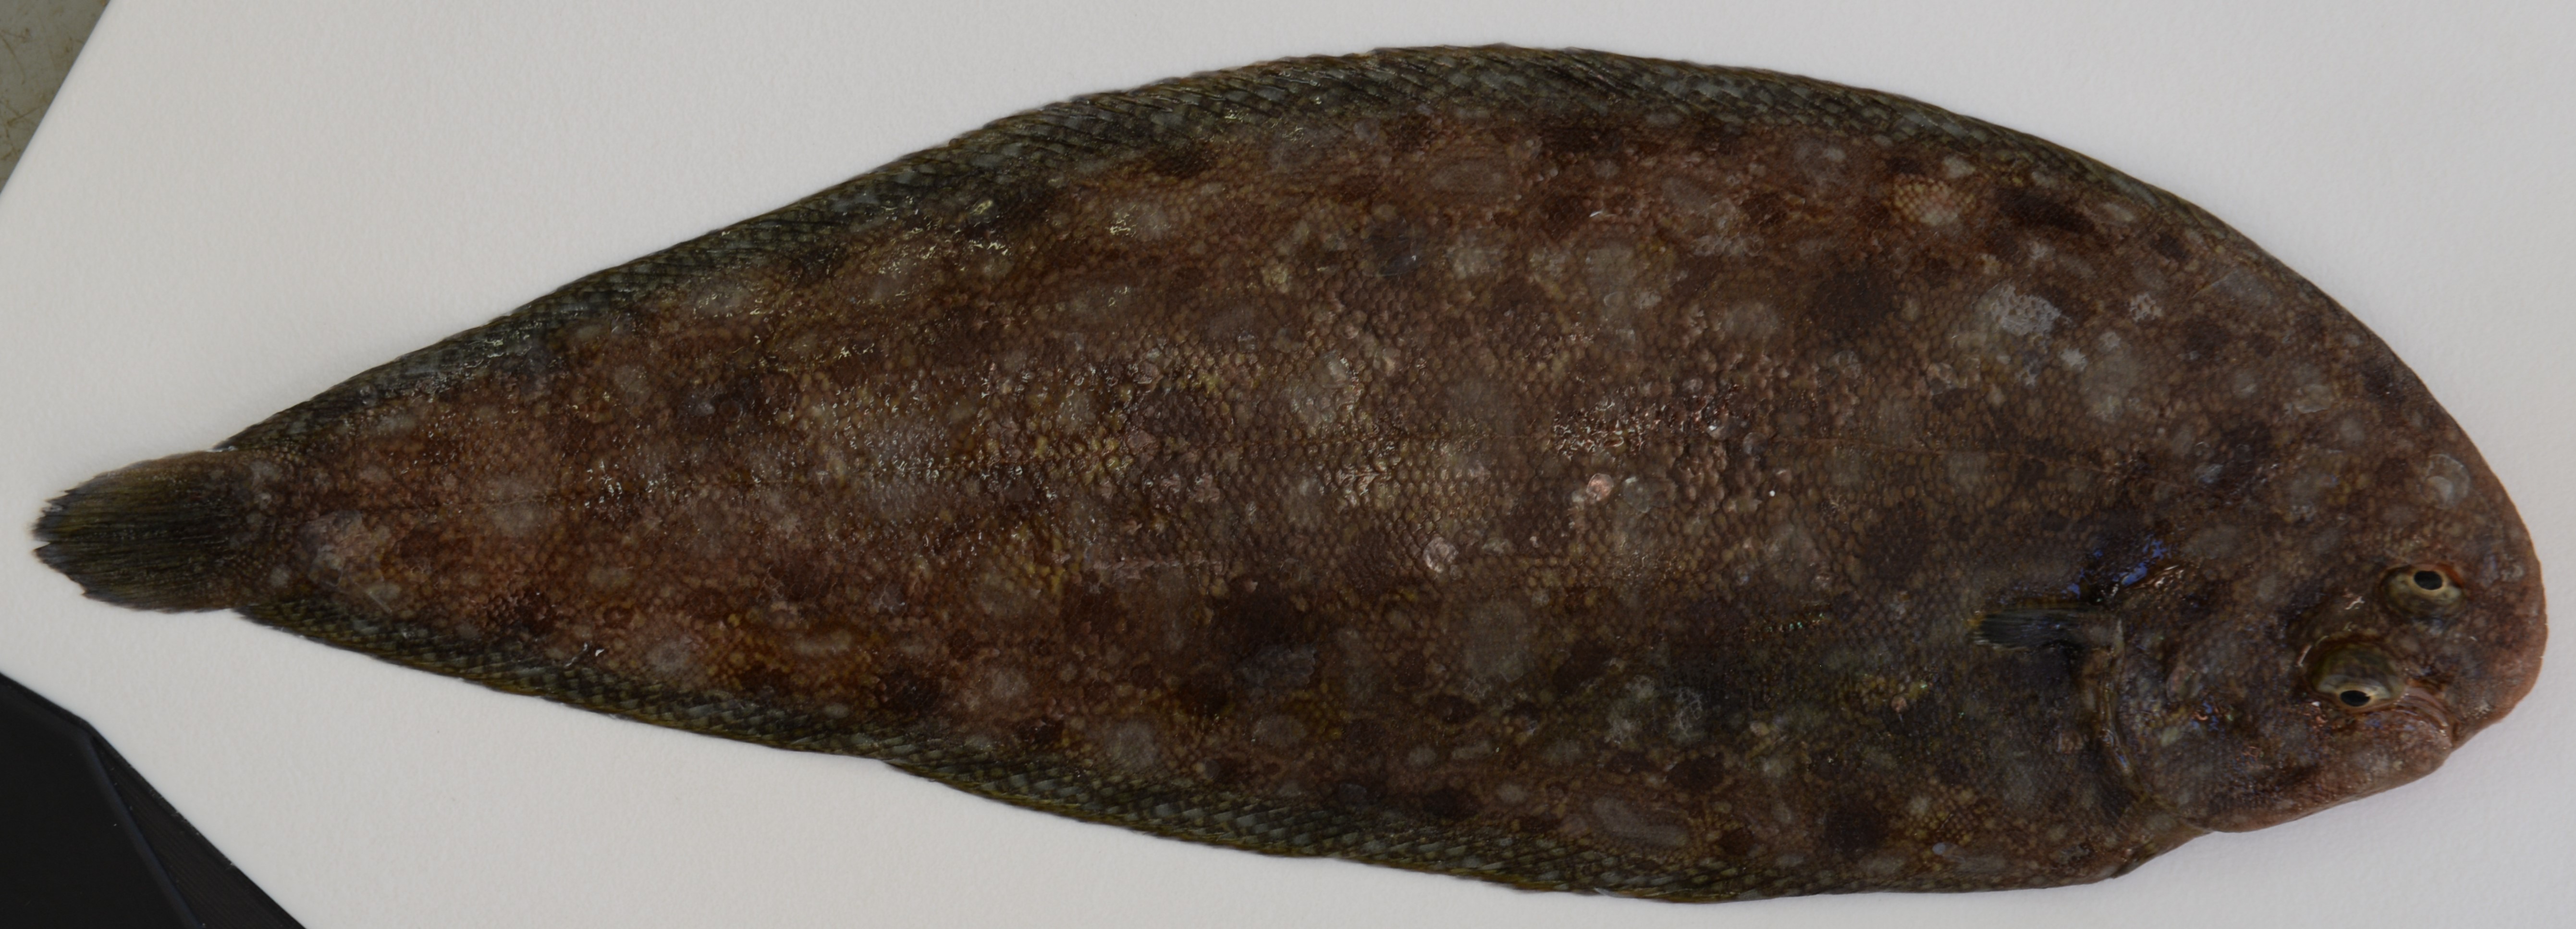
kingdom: Animalia
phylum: Chordata
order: Pleuronectiformes
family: Soleidae
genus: Synapturichthys
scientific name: Synapturichthys kleinii
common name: Klein's sole
